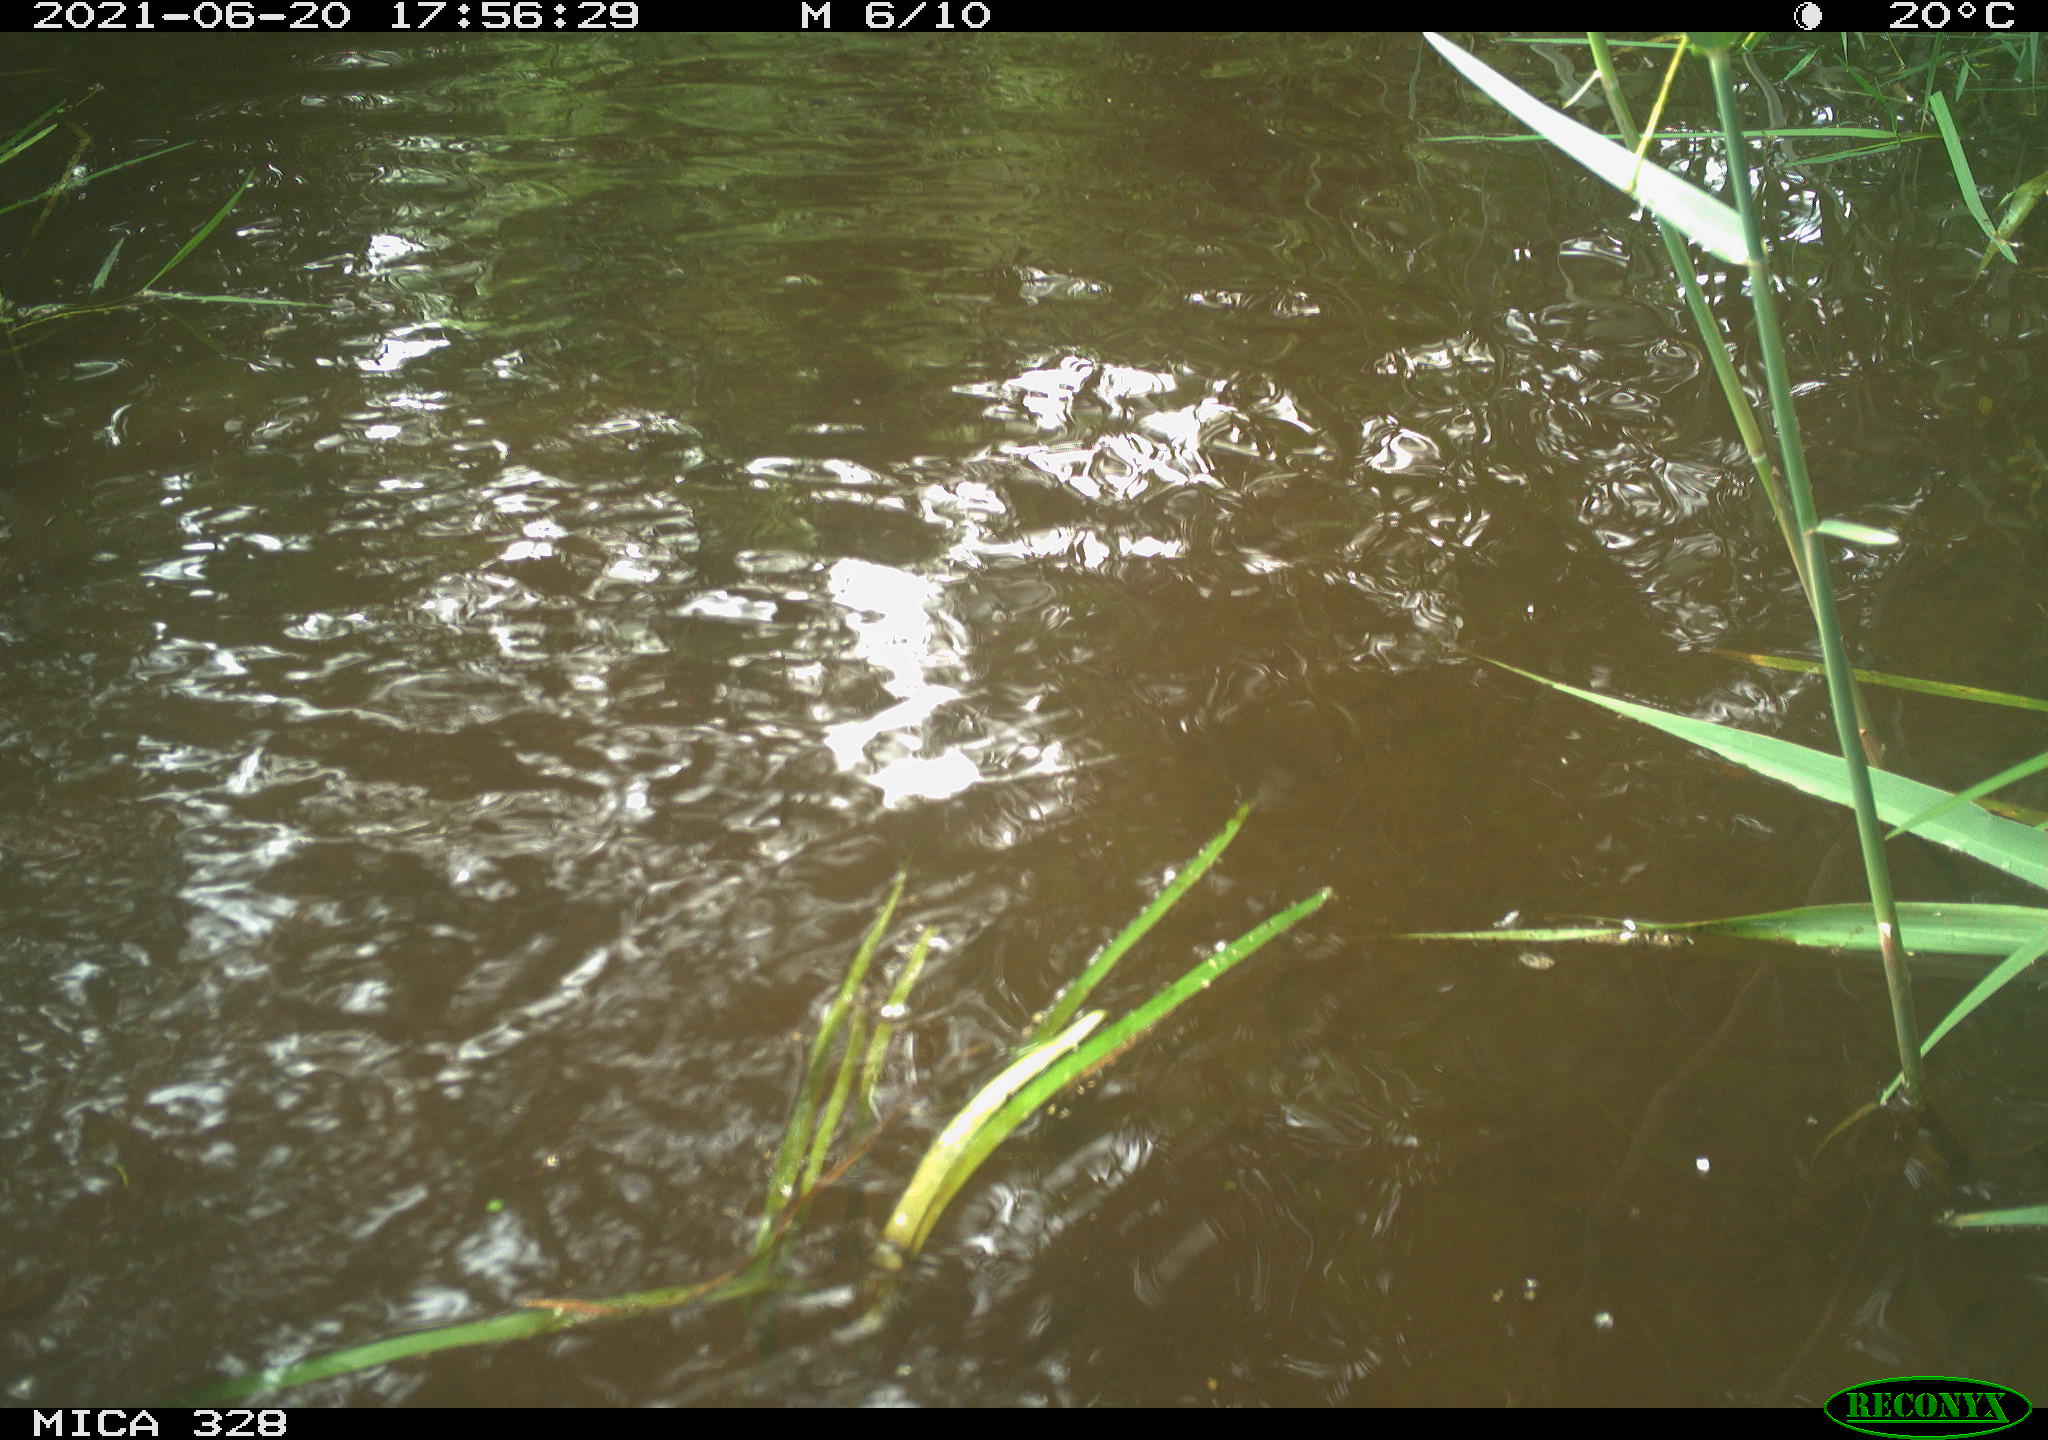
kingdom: Animalia
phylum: Chordata
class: Aves
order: Anseriformes
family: Anatidae
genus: Aix
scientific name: Aix galericulata
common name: Mandarin duck
